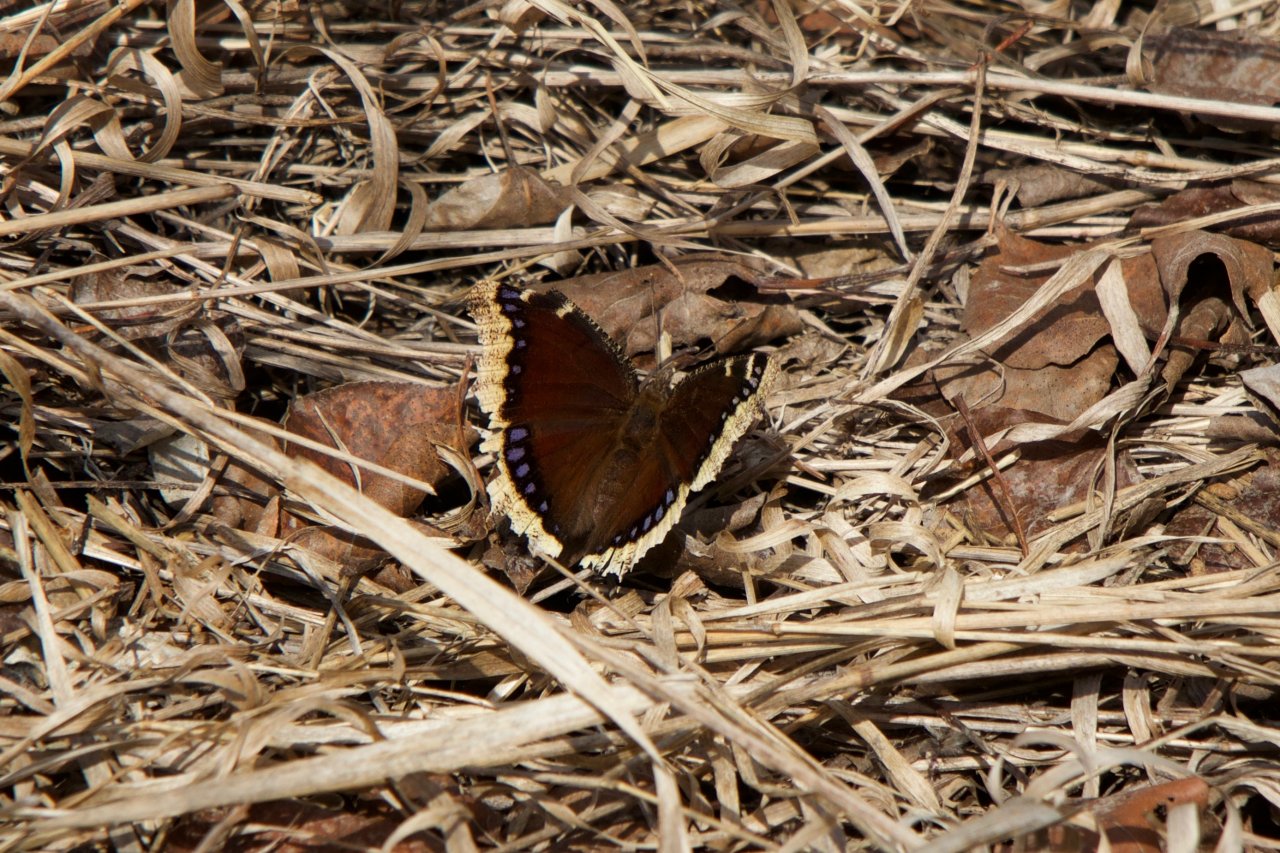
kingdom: Animalia
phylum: Arthropoda
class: Insecta
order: Lepidoptera
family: Nymphalidae
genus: Nymphalis
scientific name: Nymphalis antiopa
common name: Mourning Cloak
